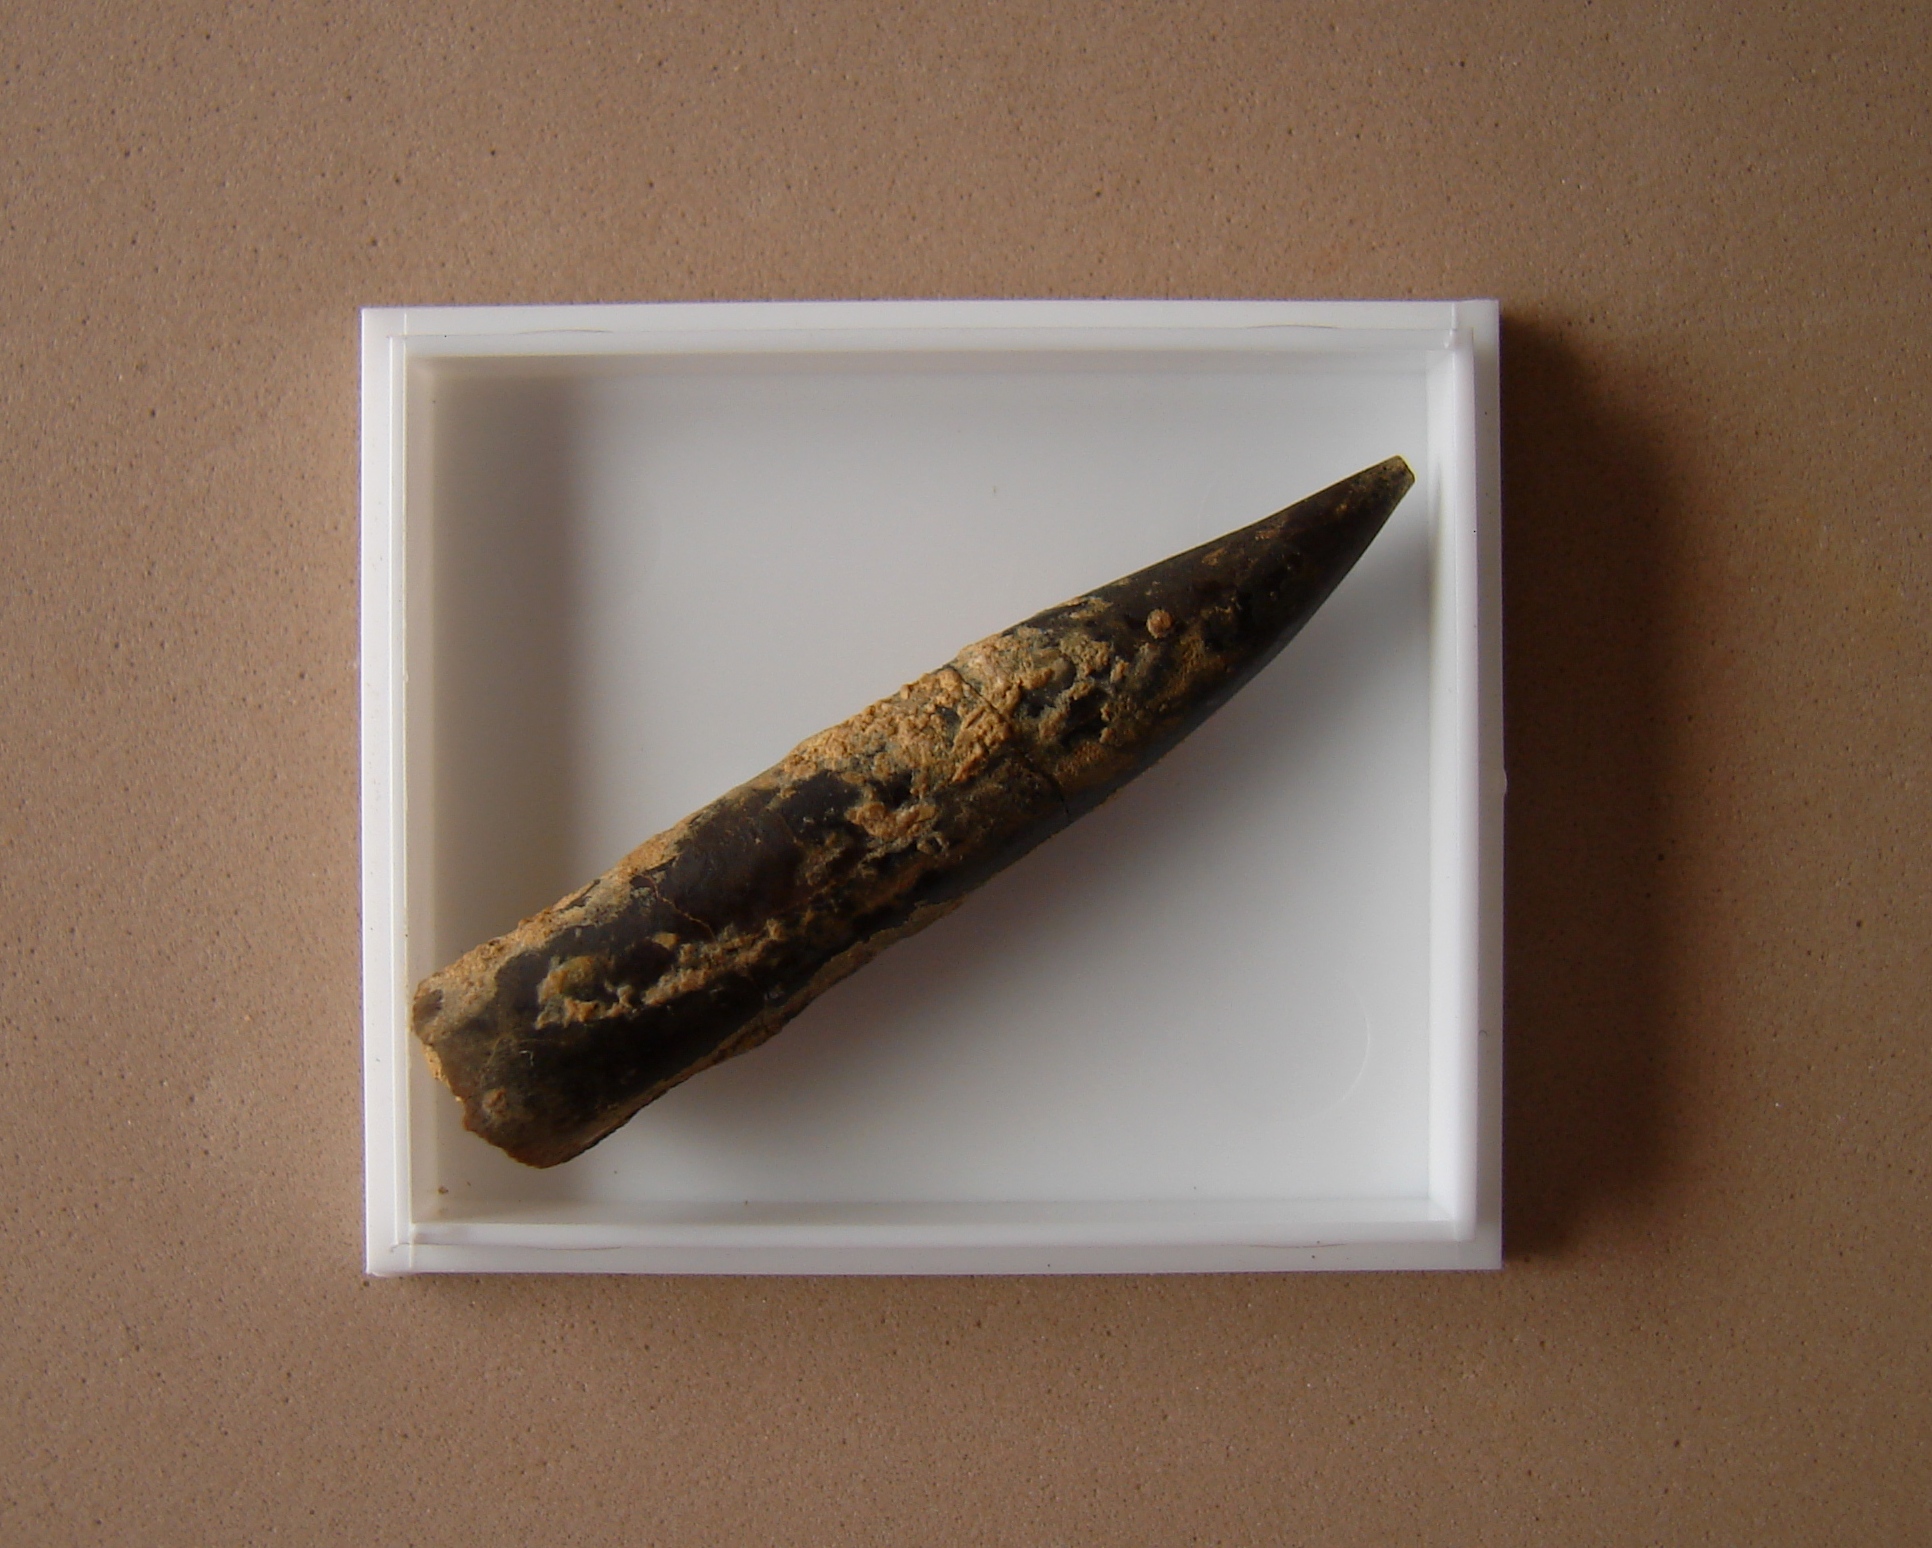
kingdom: Animalia
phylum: Mollusca
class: Cephalopoda
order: Belemnitida
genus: Nannobelus
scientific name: Nannobelus
